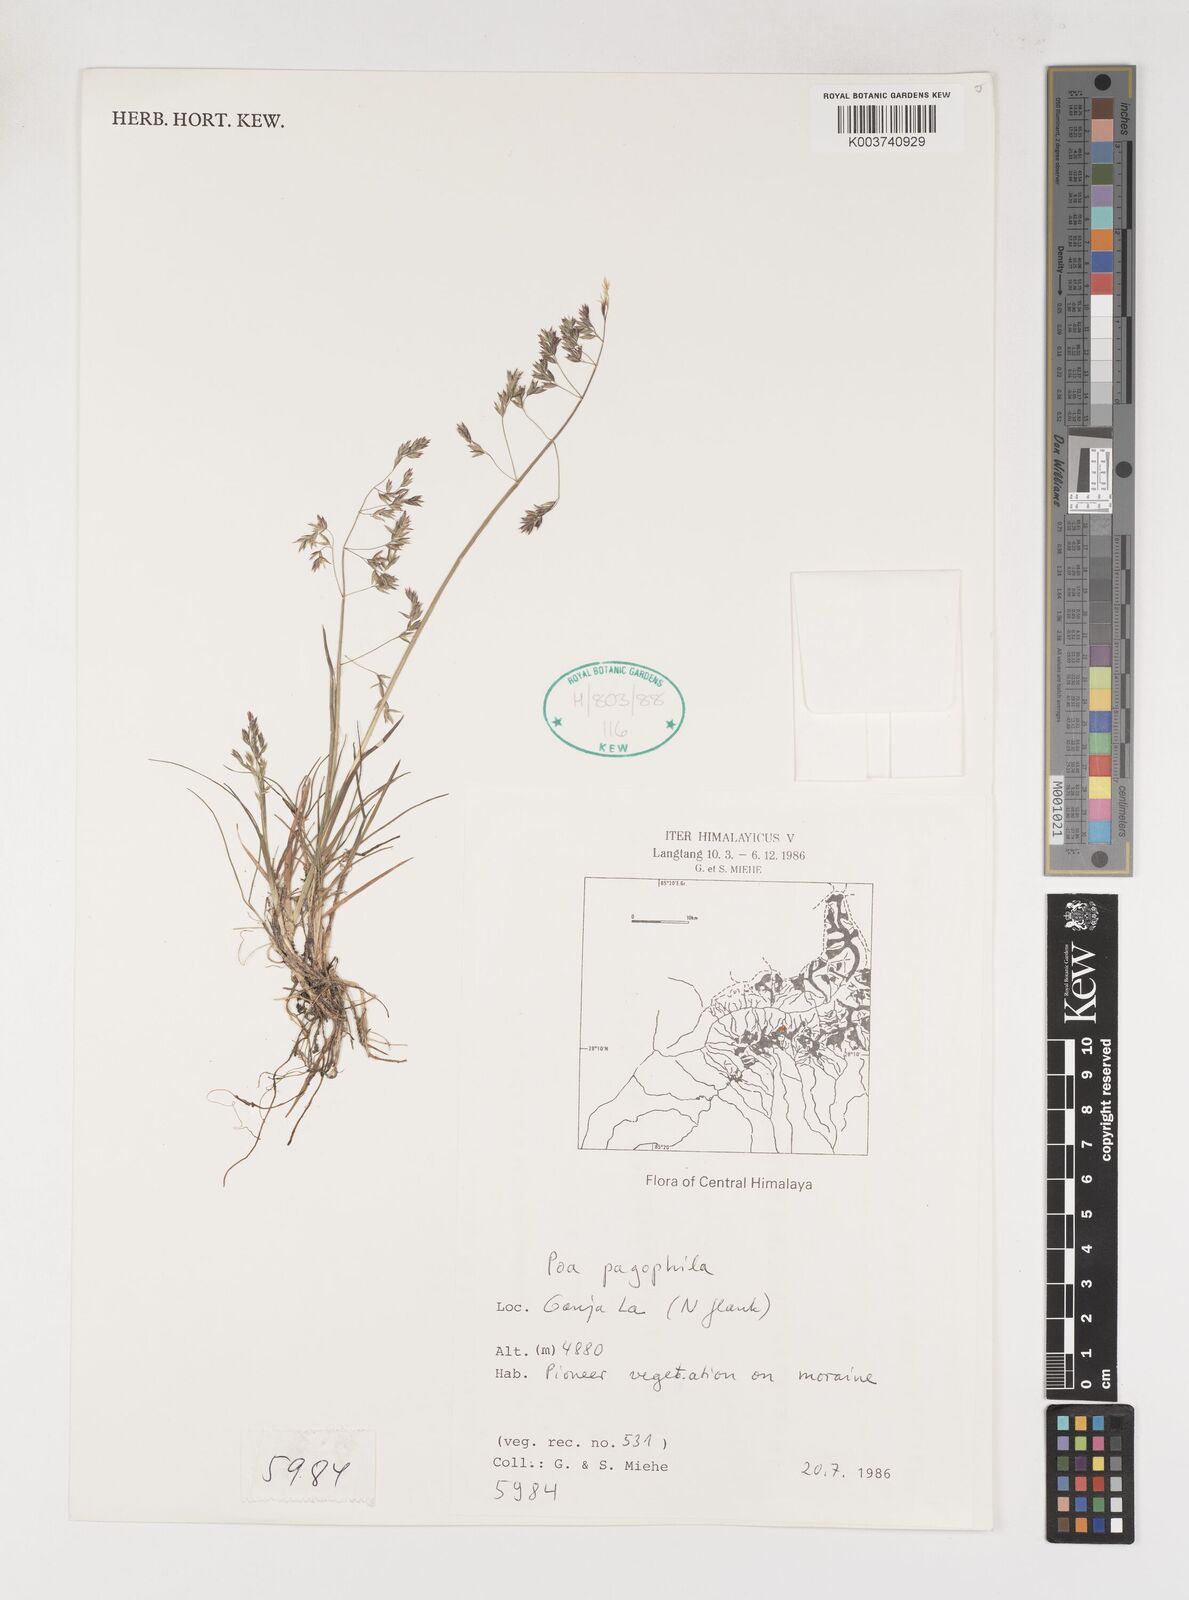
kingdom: Plantae
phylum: Tracheophyta
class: Liliopsida
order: Poales
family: Poaceae
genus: Poa
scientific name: Poa pagophila
